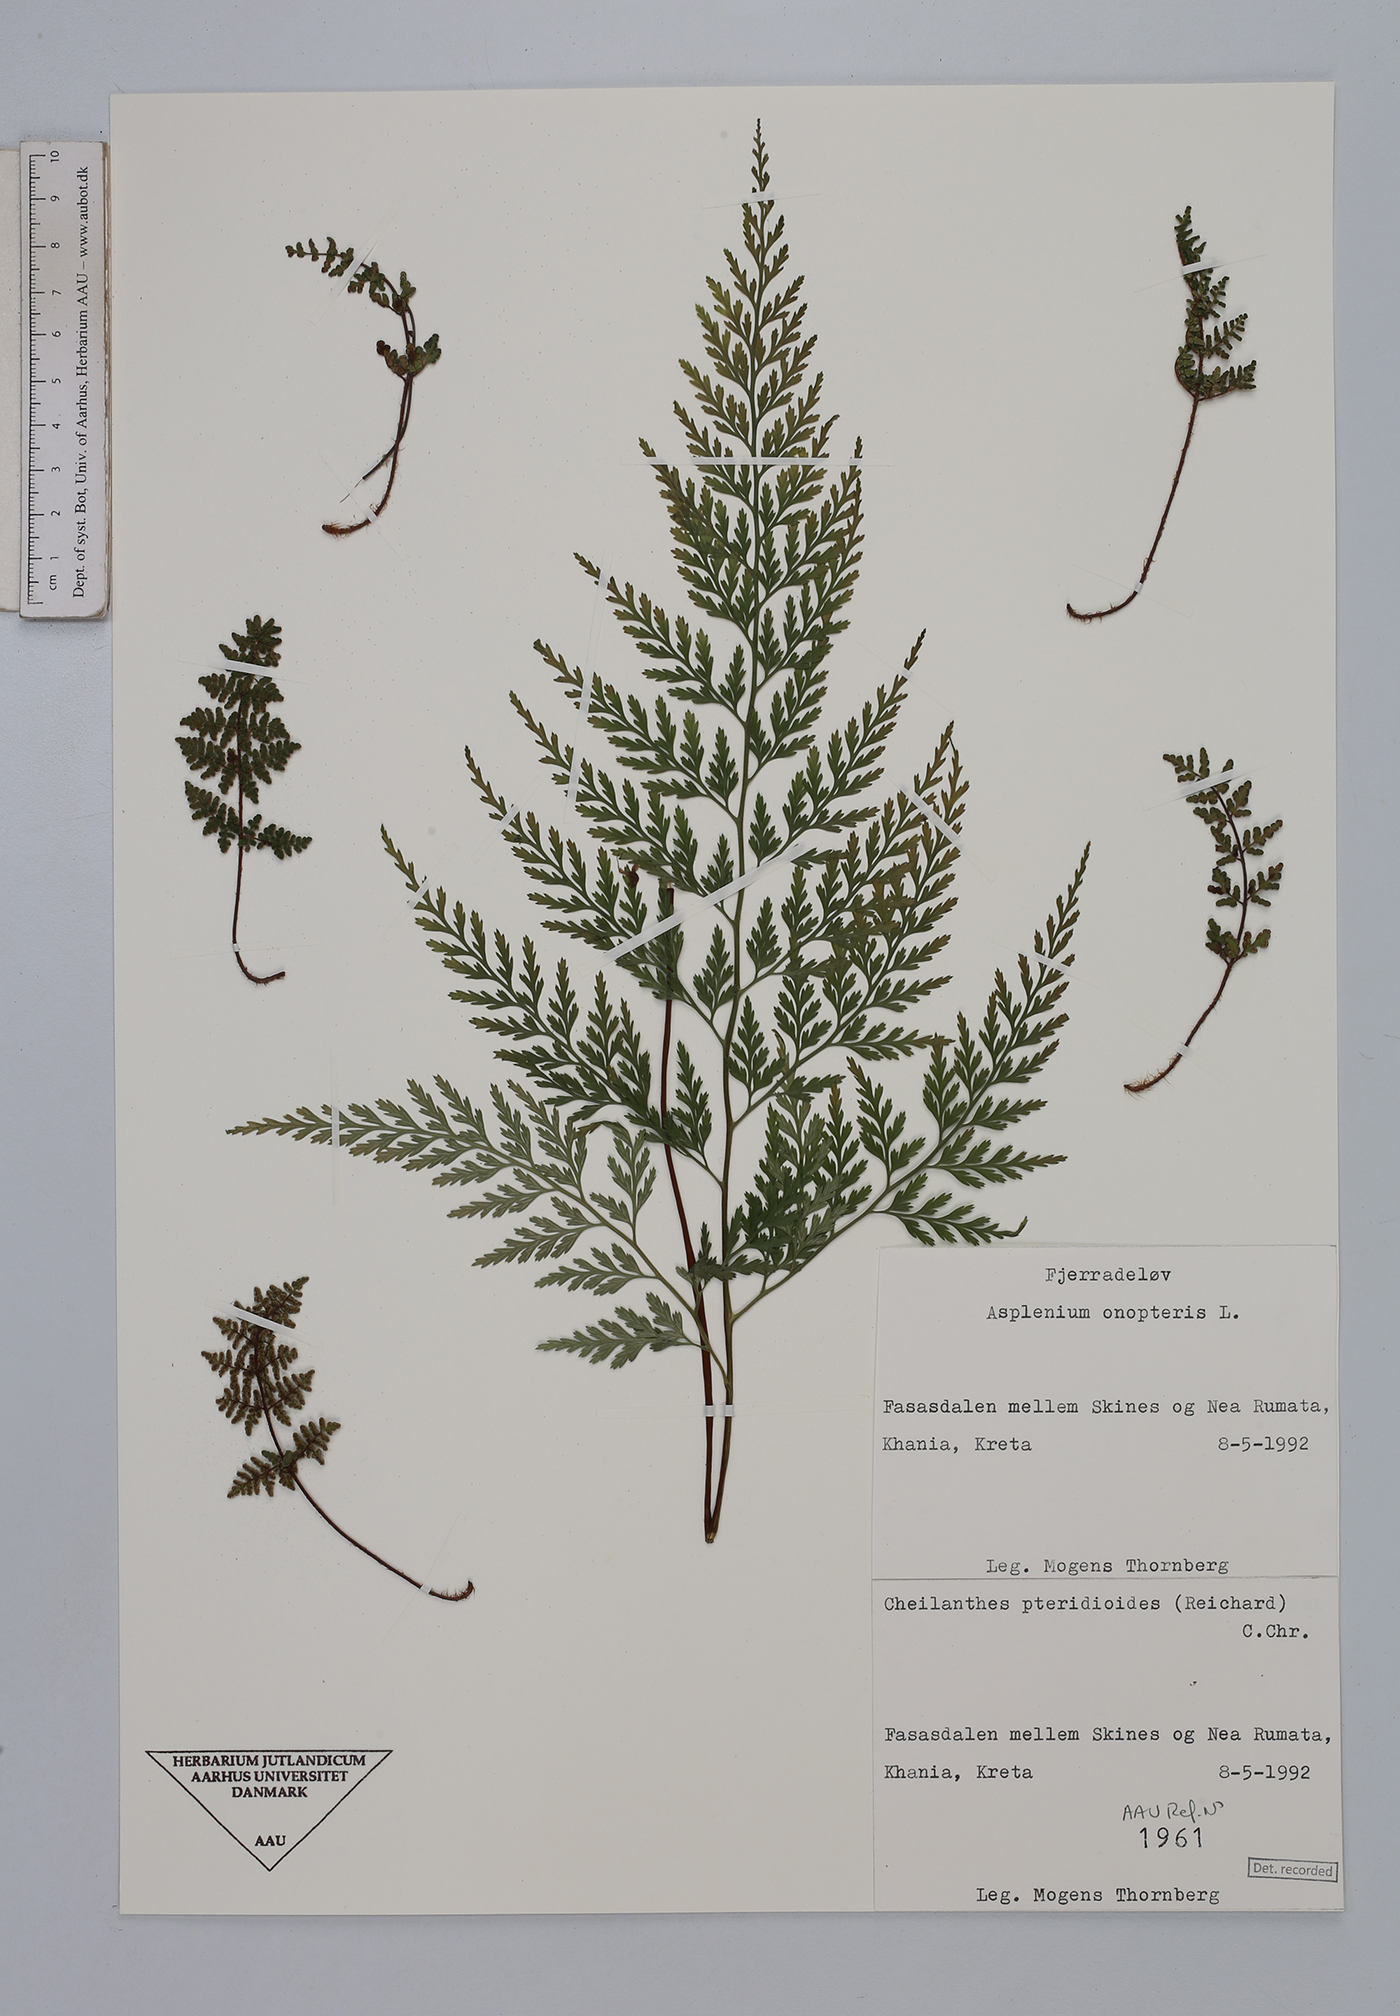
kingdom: Plantae
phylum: Tracheophyta
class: Polypodiopsida
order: Polypodiales
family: Aspleniaceae
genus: Asplenium
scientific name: Asplenium onopteris
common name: Irish spleenwort
